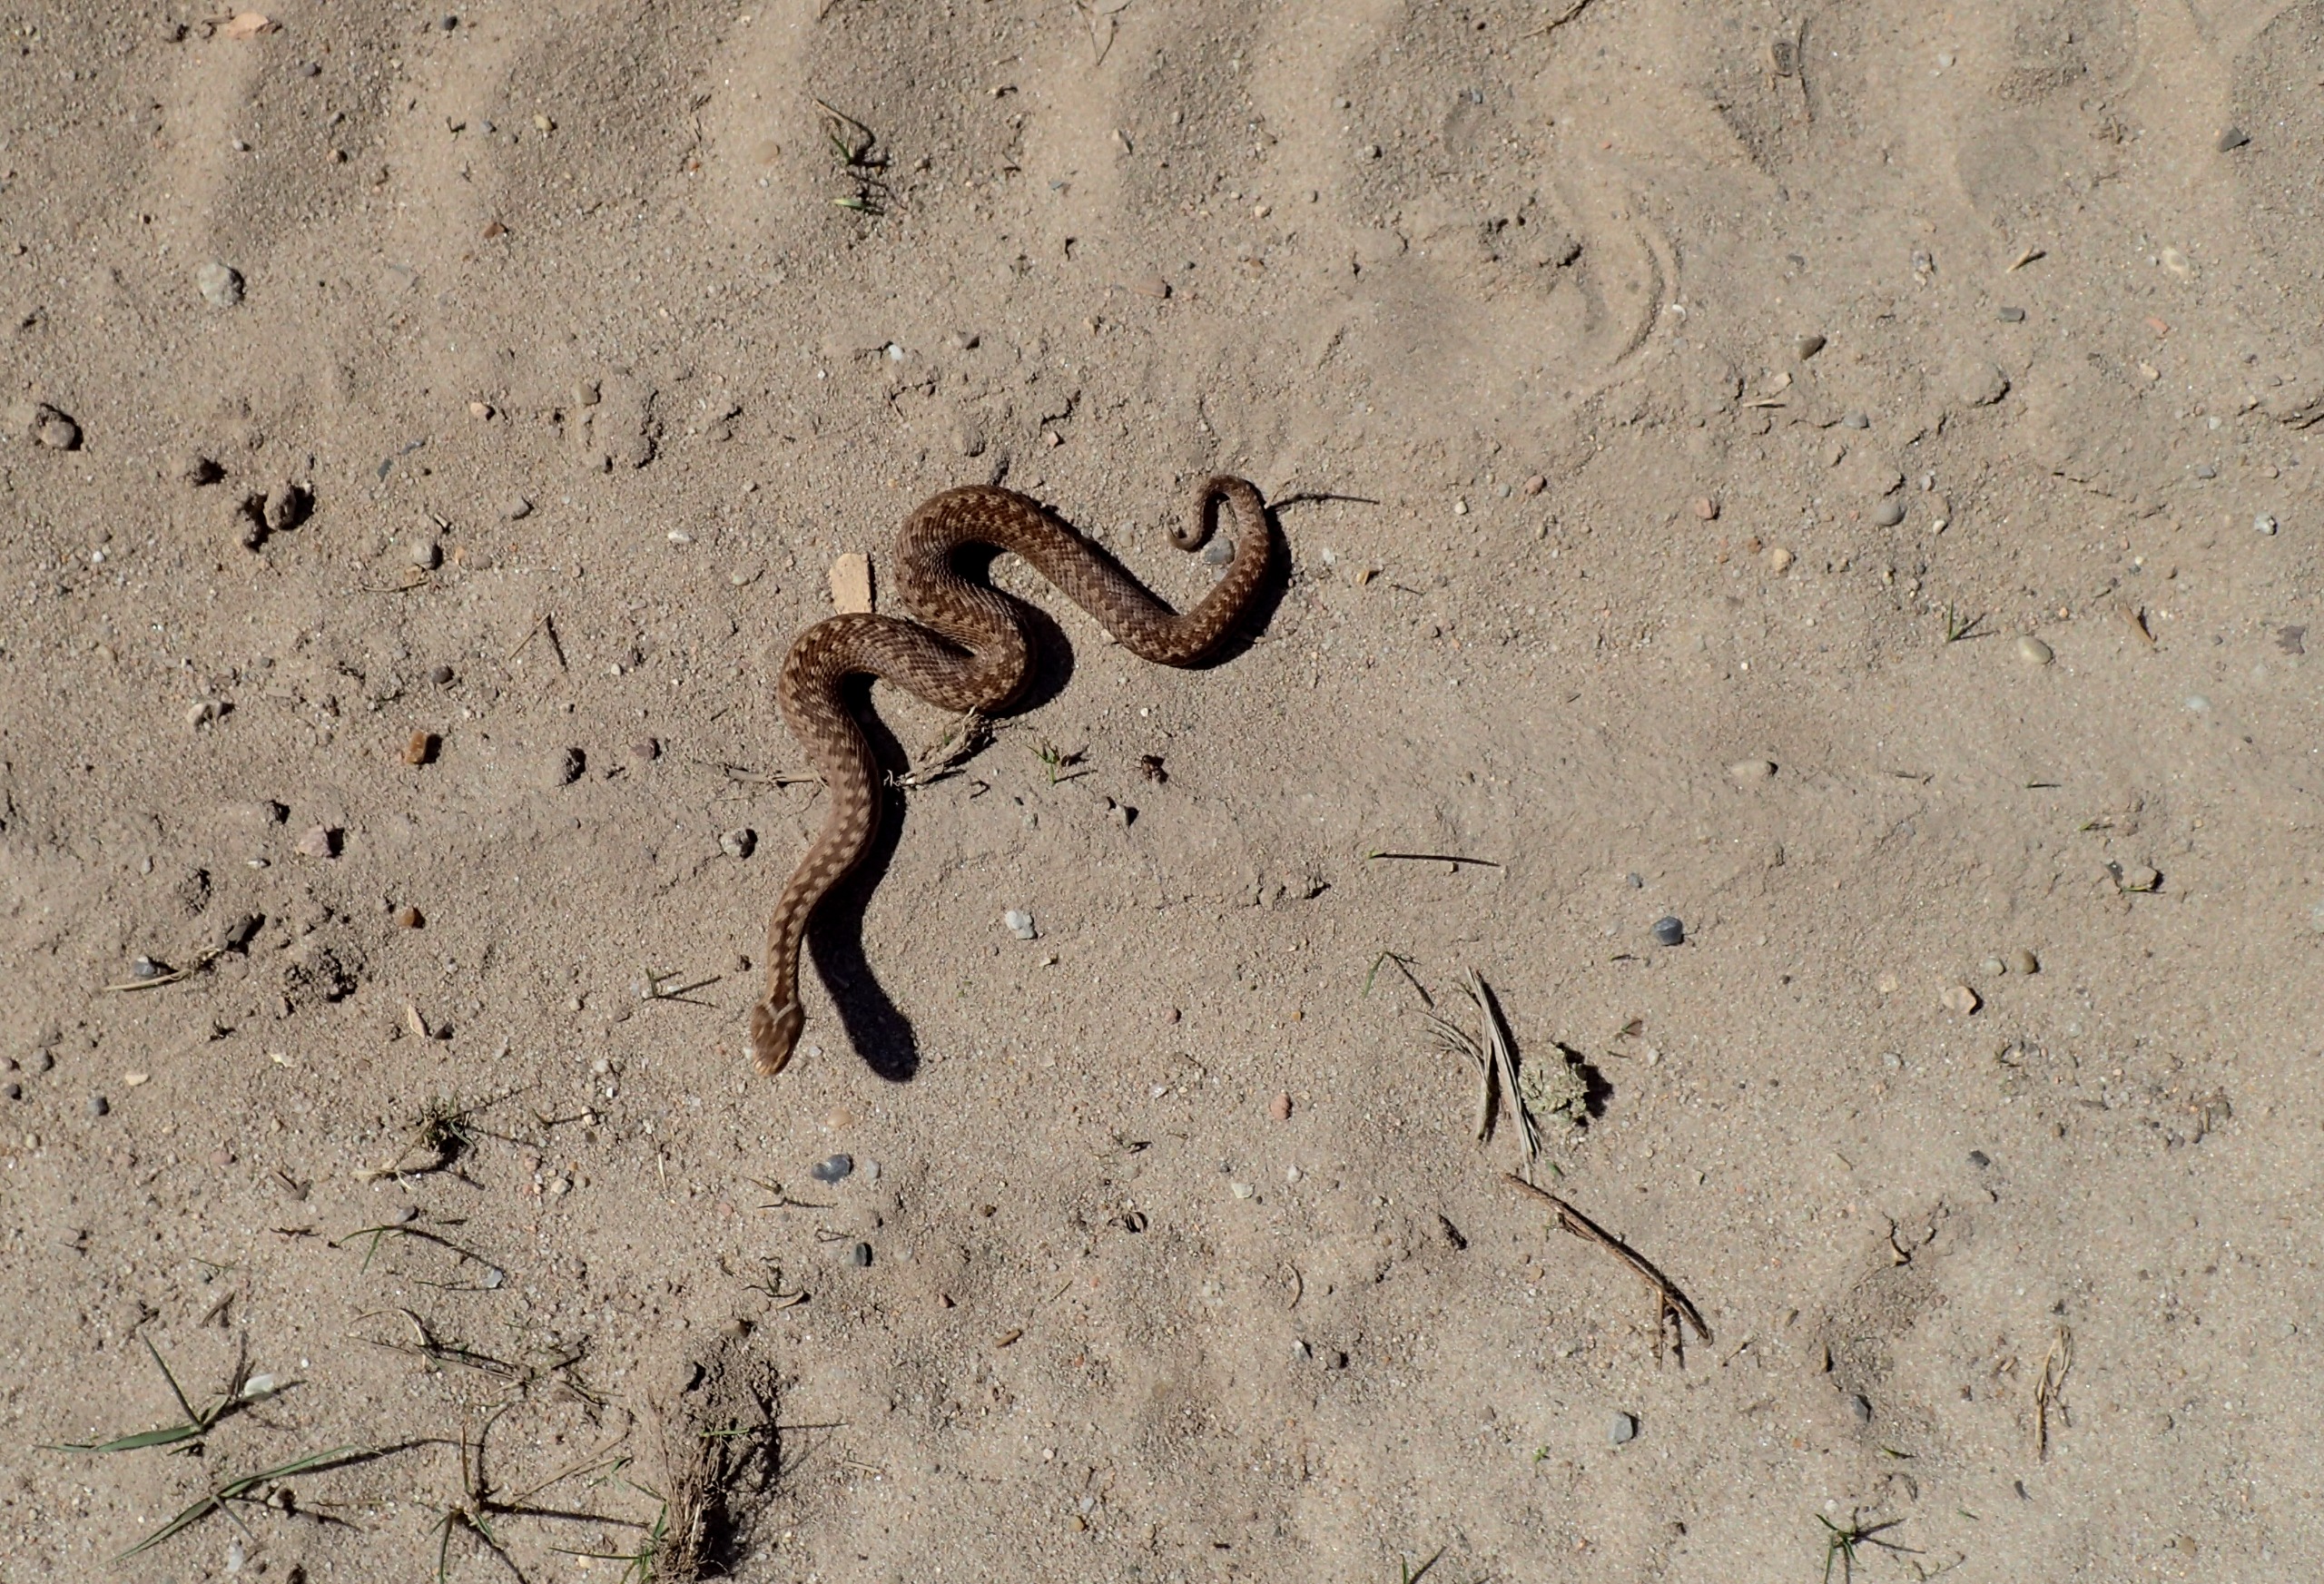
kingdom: Animalia
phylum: Chordata
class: Squamata
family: Viperidae
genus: Vipera
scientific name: Vipera berus
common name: Hugorm
